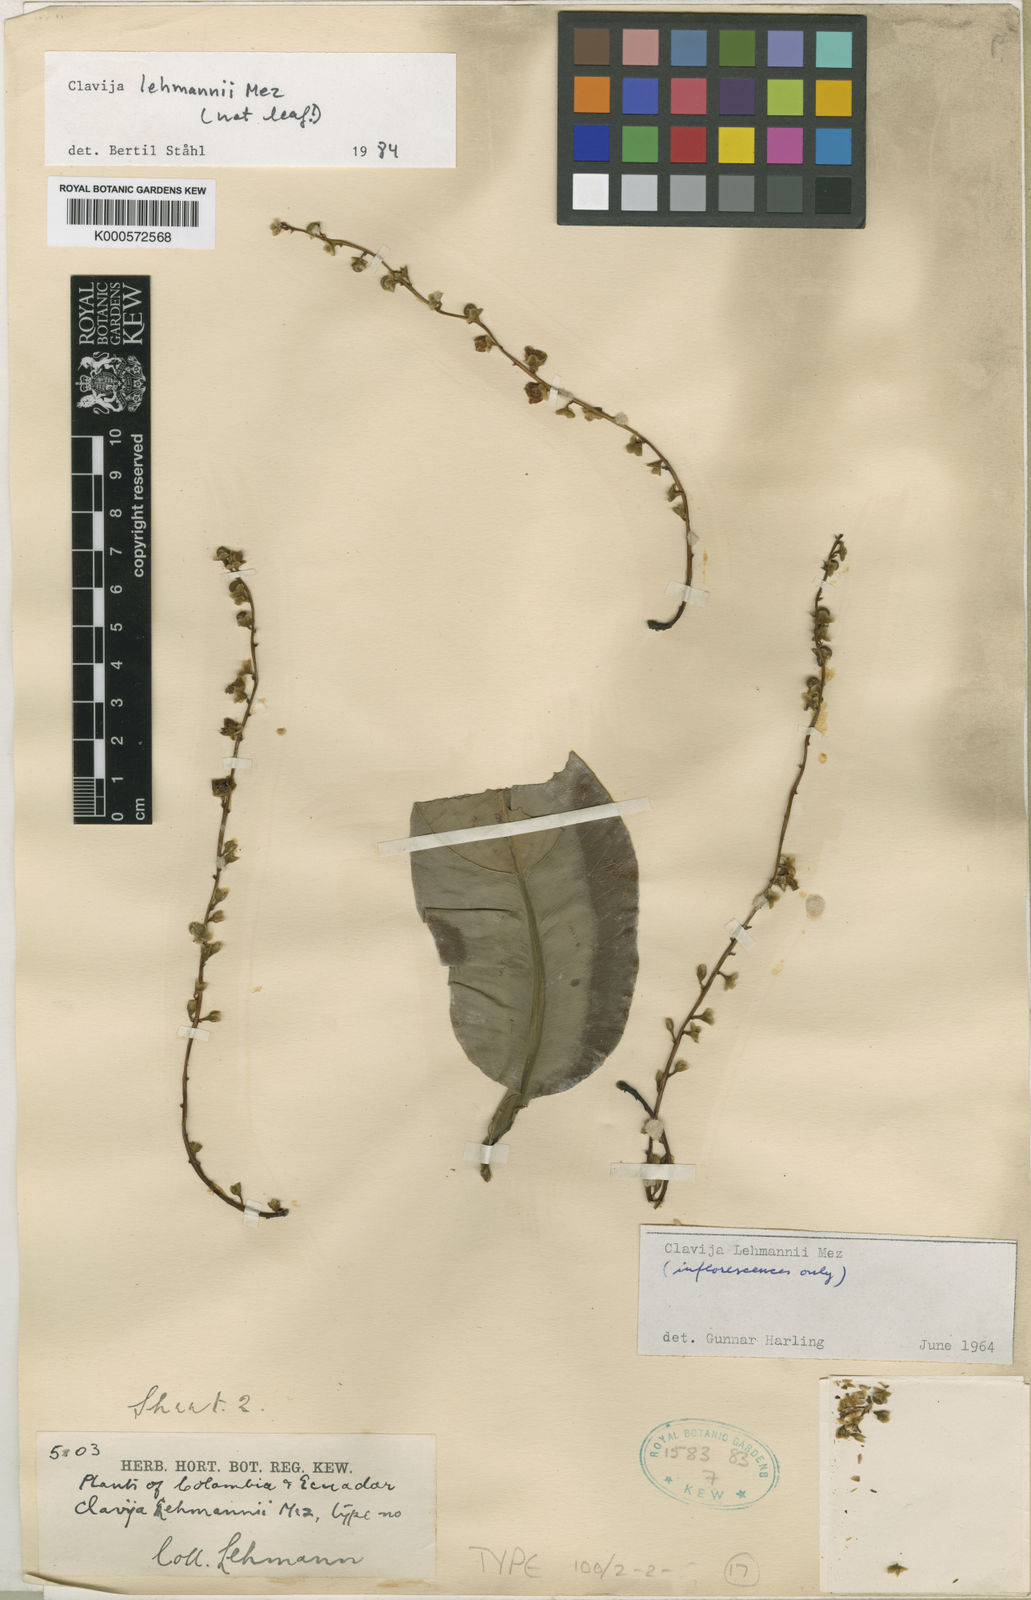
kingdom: Plantae
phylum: Tracheophyta
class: Magnoliopsida
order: Ericales
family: Primulaceae
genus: Clavija
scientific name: Clavija lehmannii
